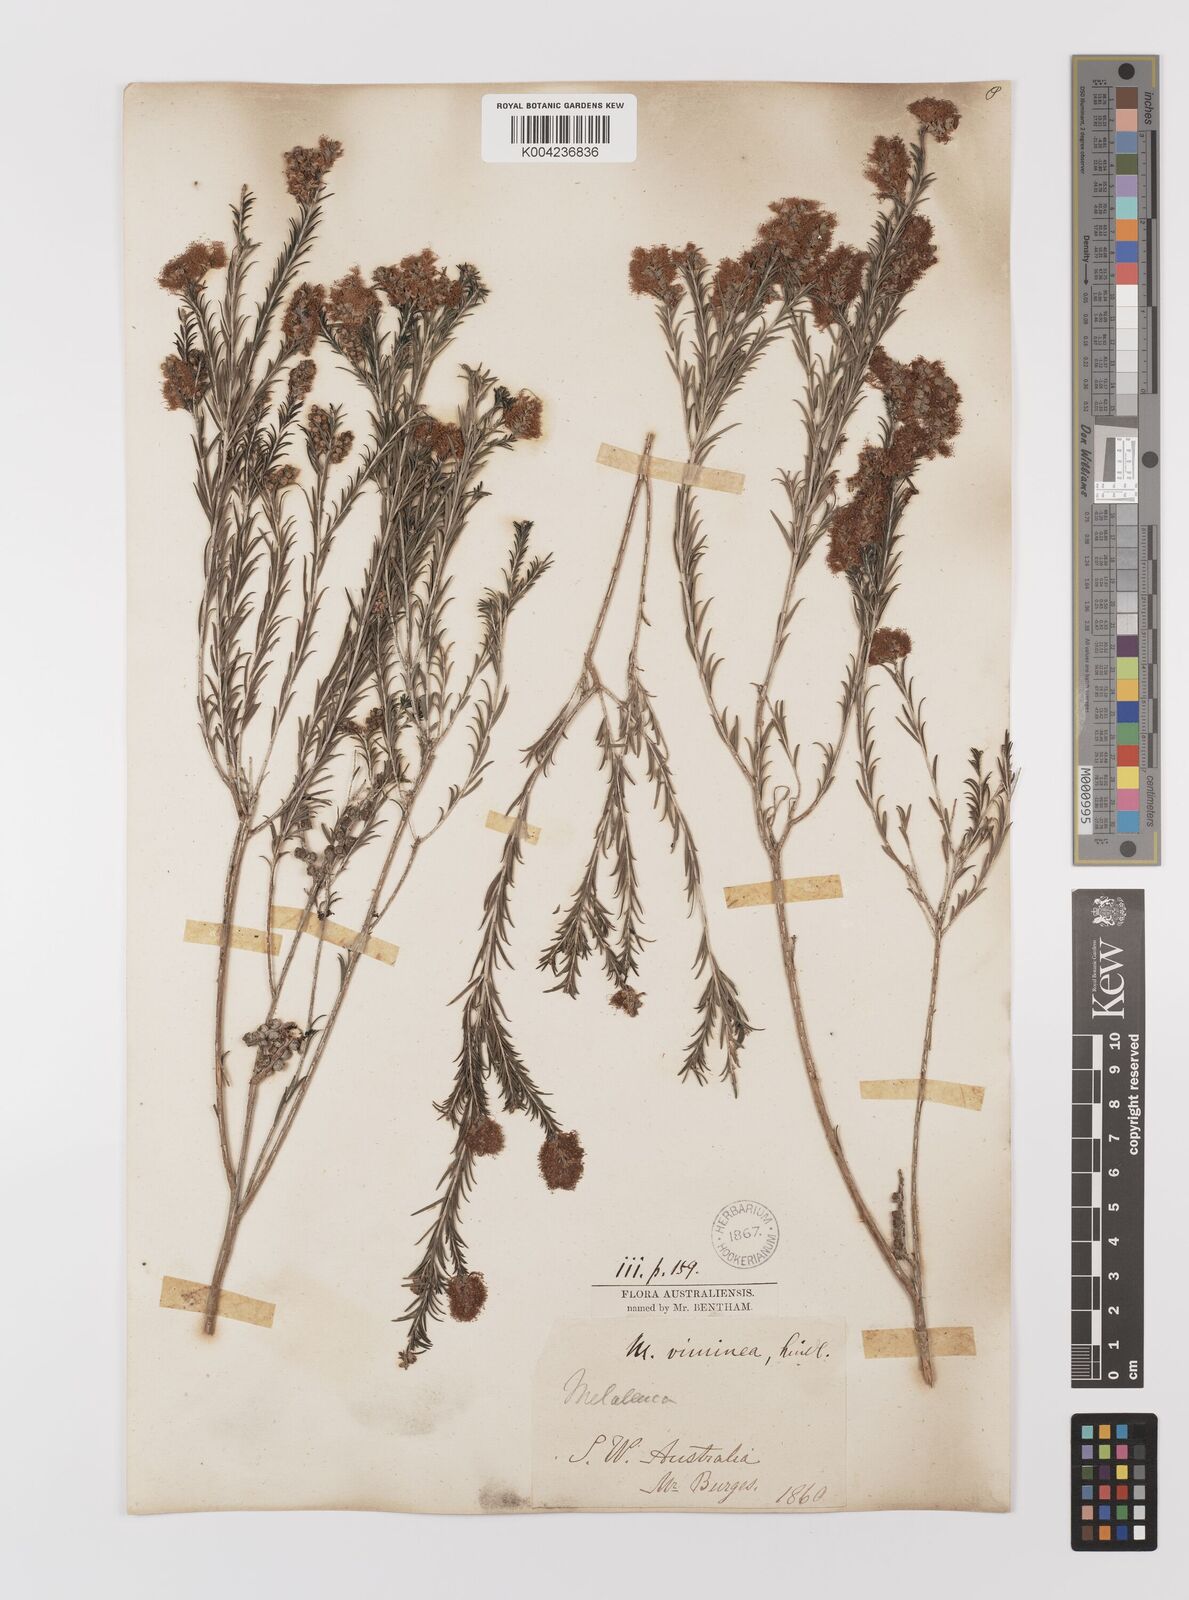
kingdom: Plantae
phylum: Tracheophyta
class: Magnoliopsida
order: Myrtales
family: Myrtaceae
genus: Melaleuca
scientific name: Melaleuca viminea
